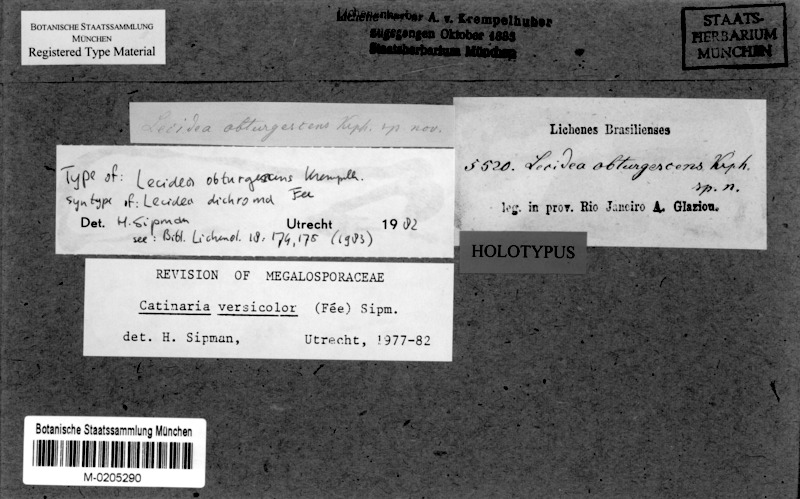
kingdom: Fungi
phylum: Ascomycota
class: Lecanoromycetes
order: Lecanorales
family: Ramalinaceae
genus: Lopezaria
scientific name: Lopezaria versicolor
